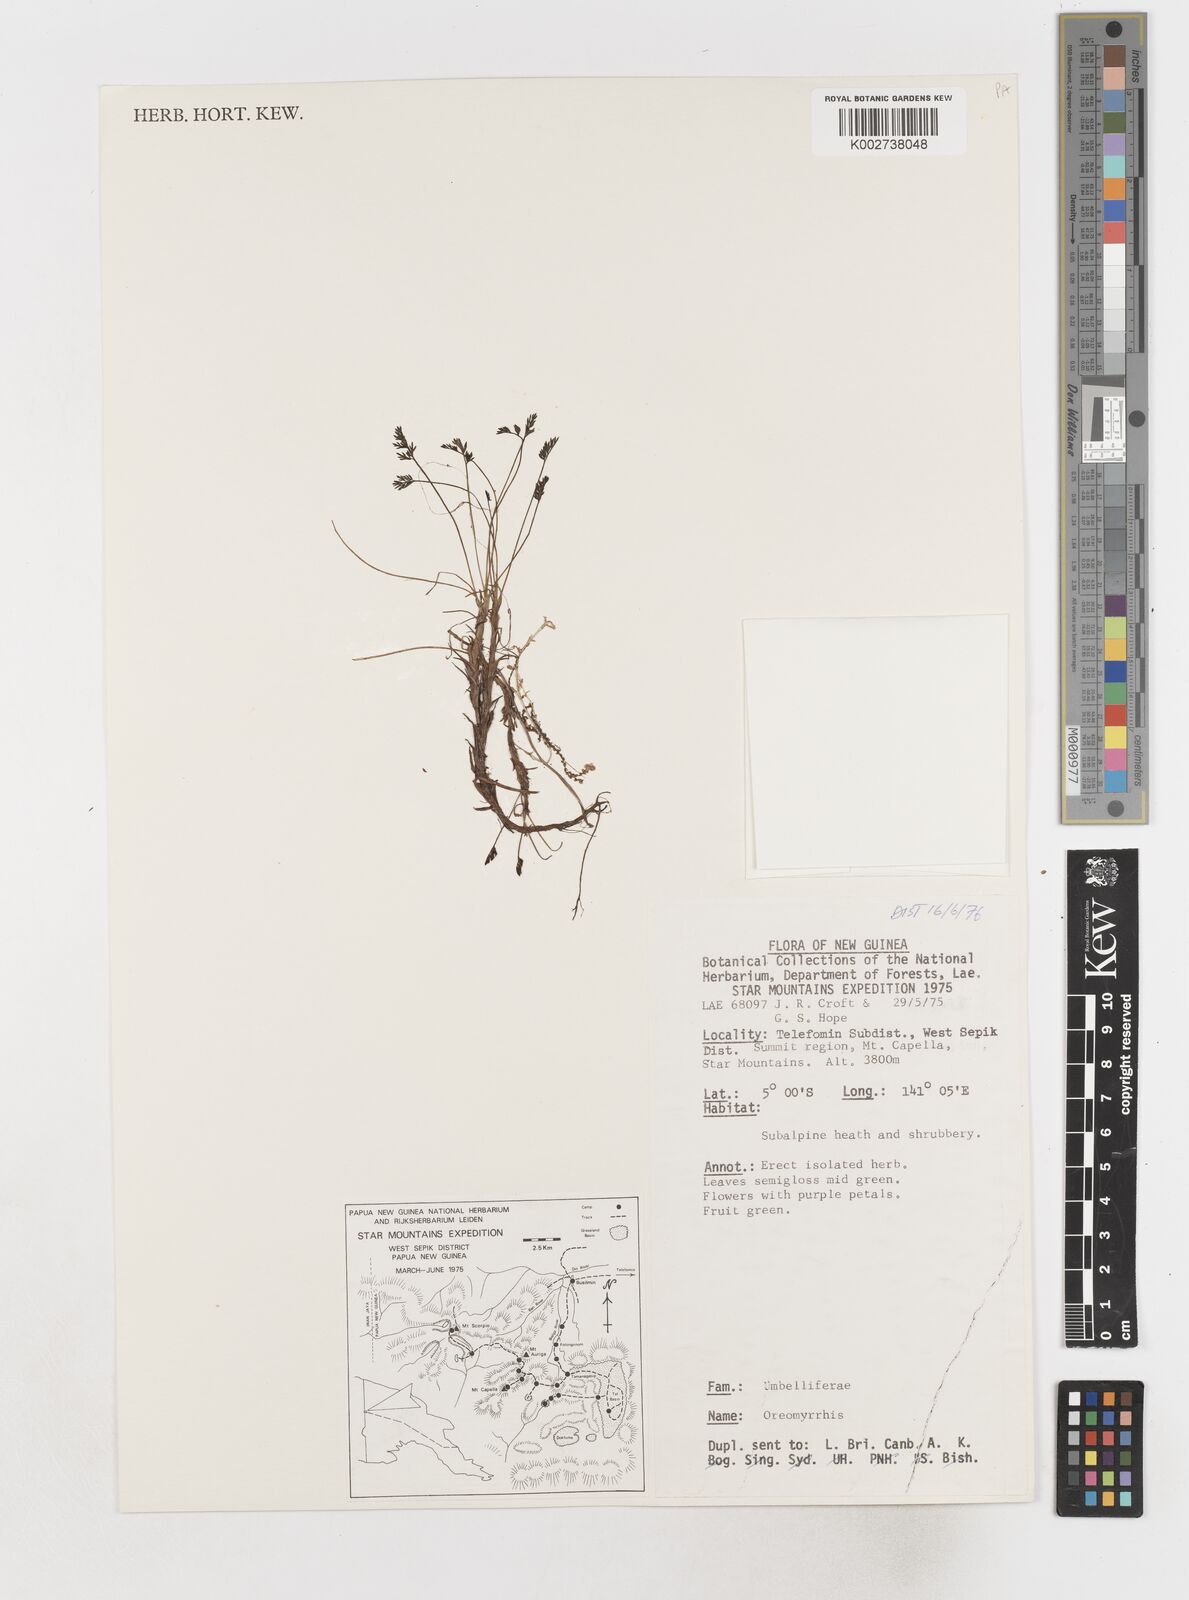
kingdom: Plantae
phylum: Tracheophyta
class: Magnoliopsida
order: Apiales
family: Apiaceae
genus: Chaerophyllum
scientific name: Chaerophyllum pumilum
